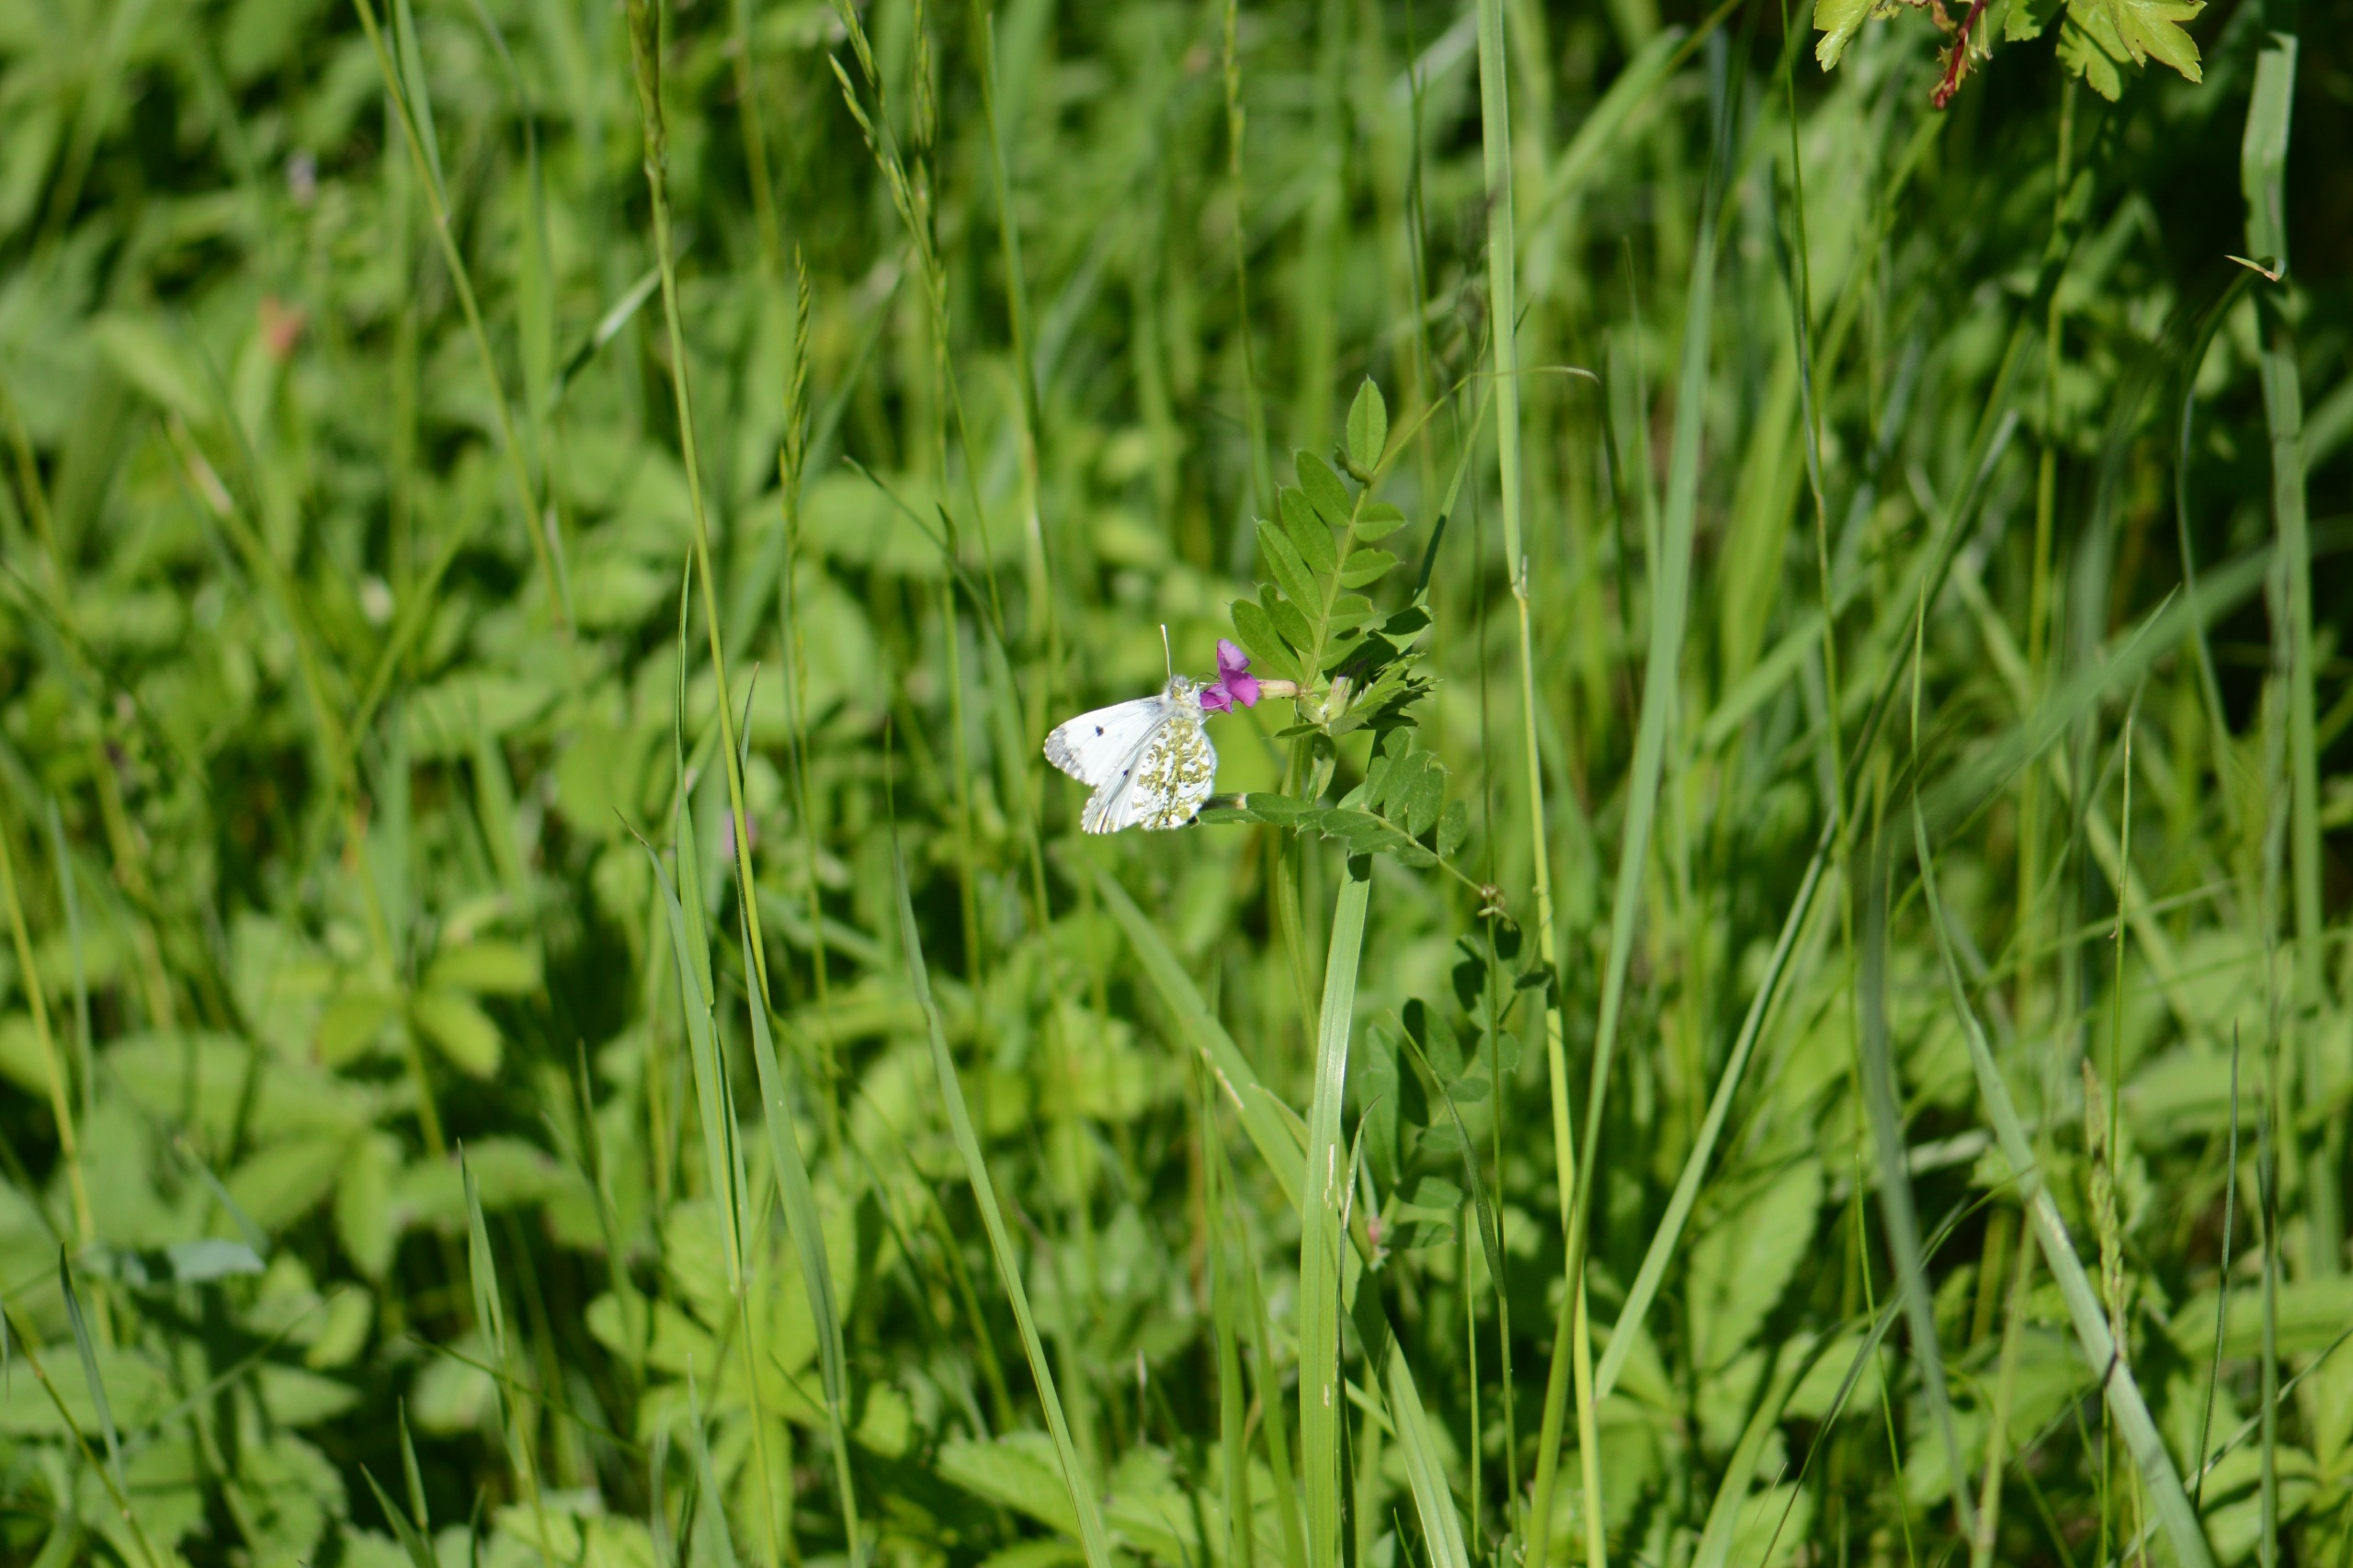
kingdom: Animalia
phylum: Arthropoda
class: Insecta
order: Lepidoptera
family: Pieridae
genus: Anthocharis
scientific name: Anthocharis cardamines
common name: Aurora
